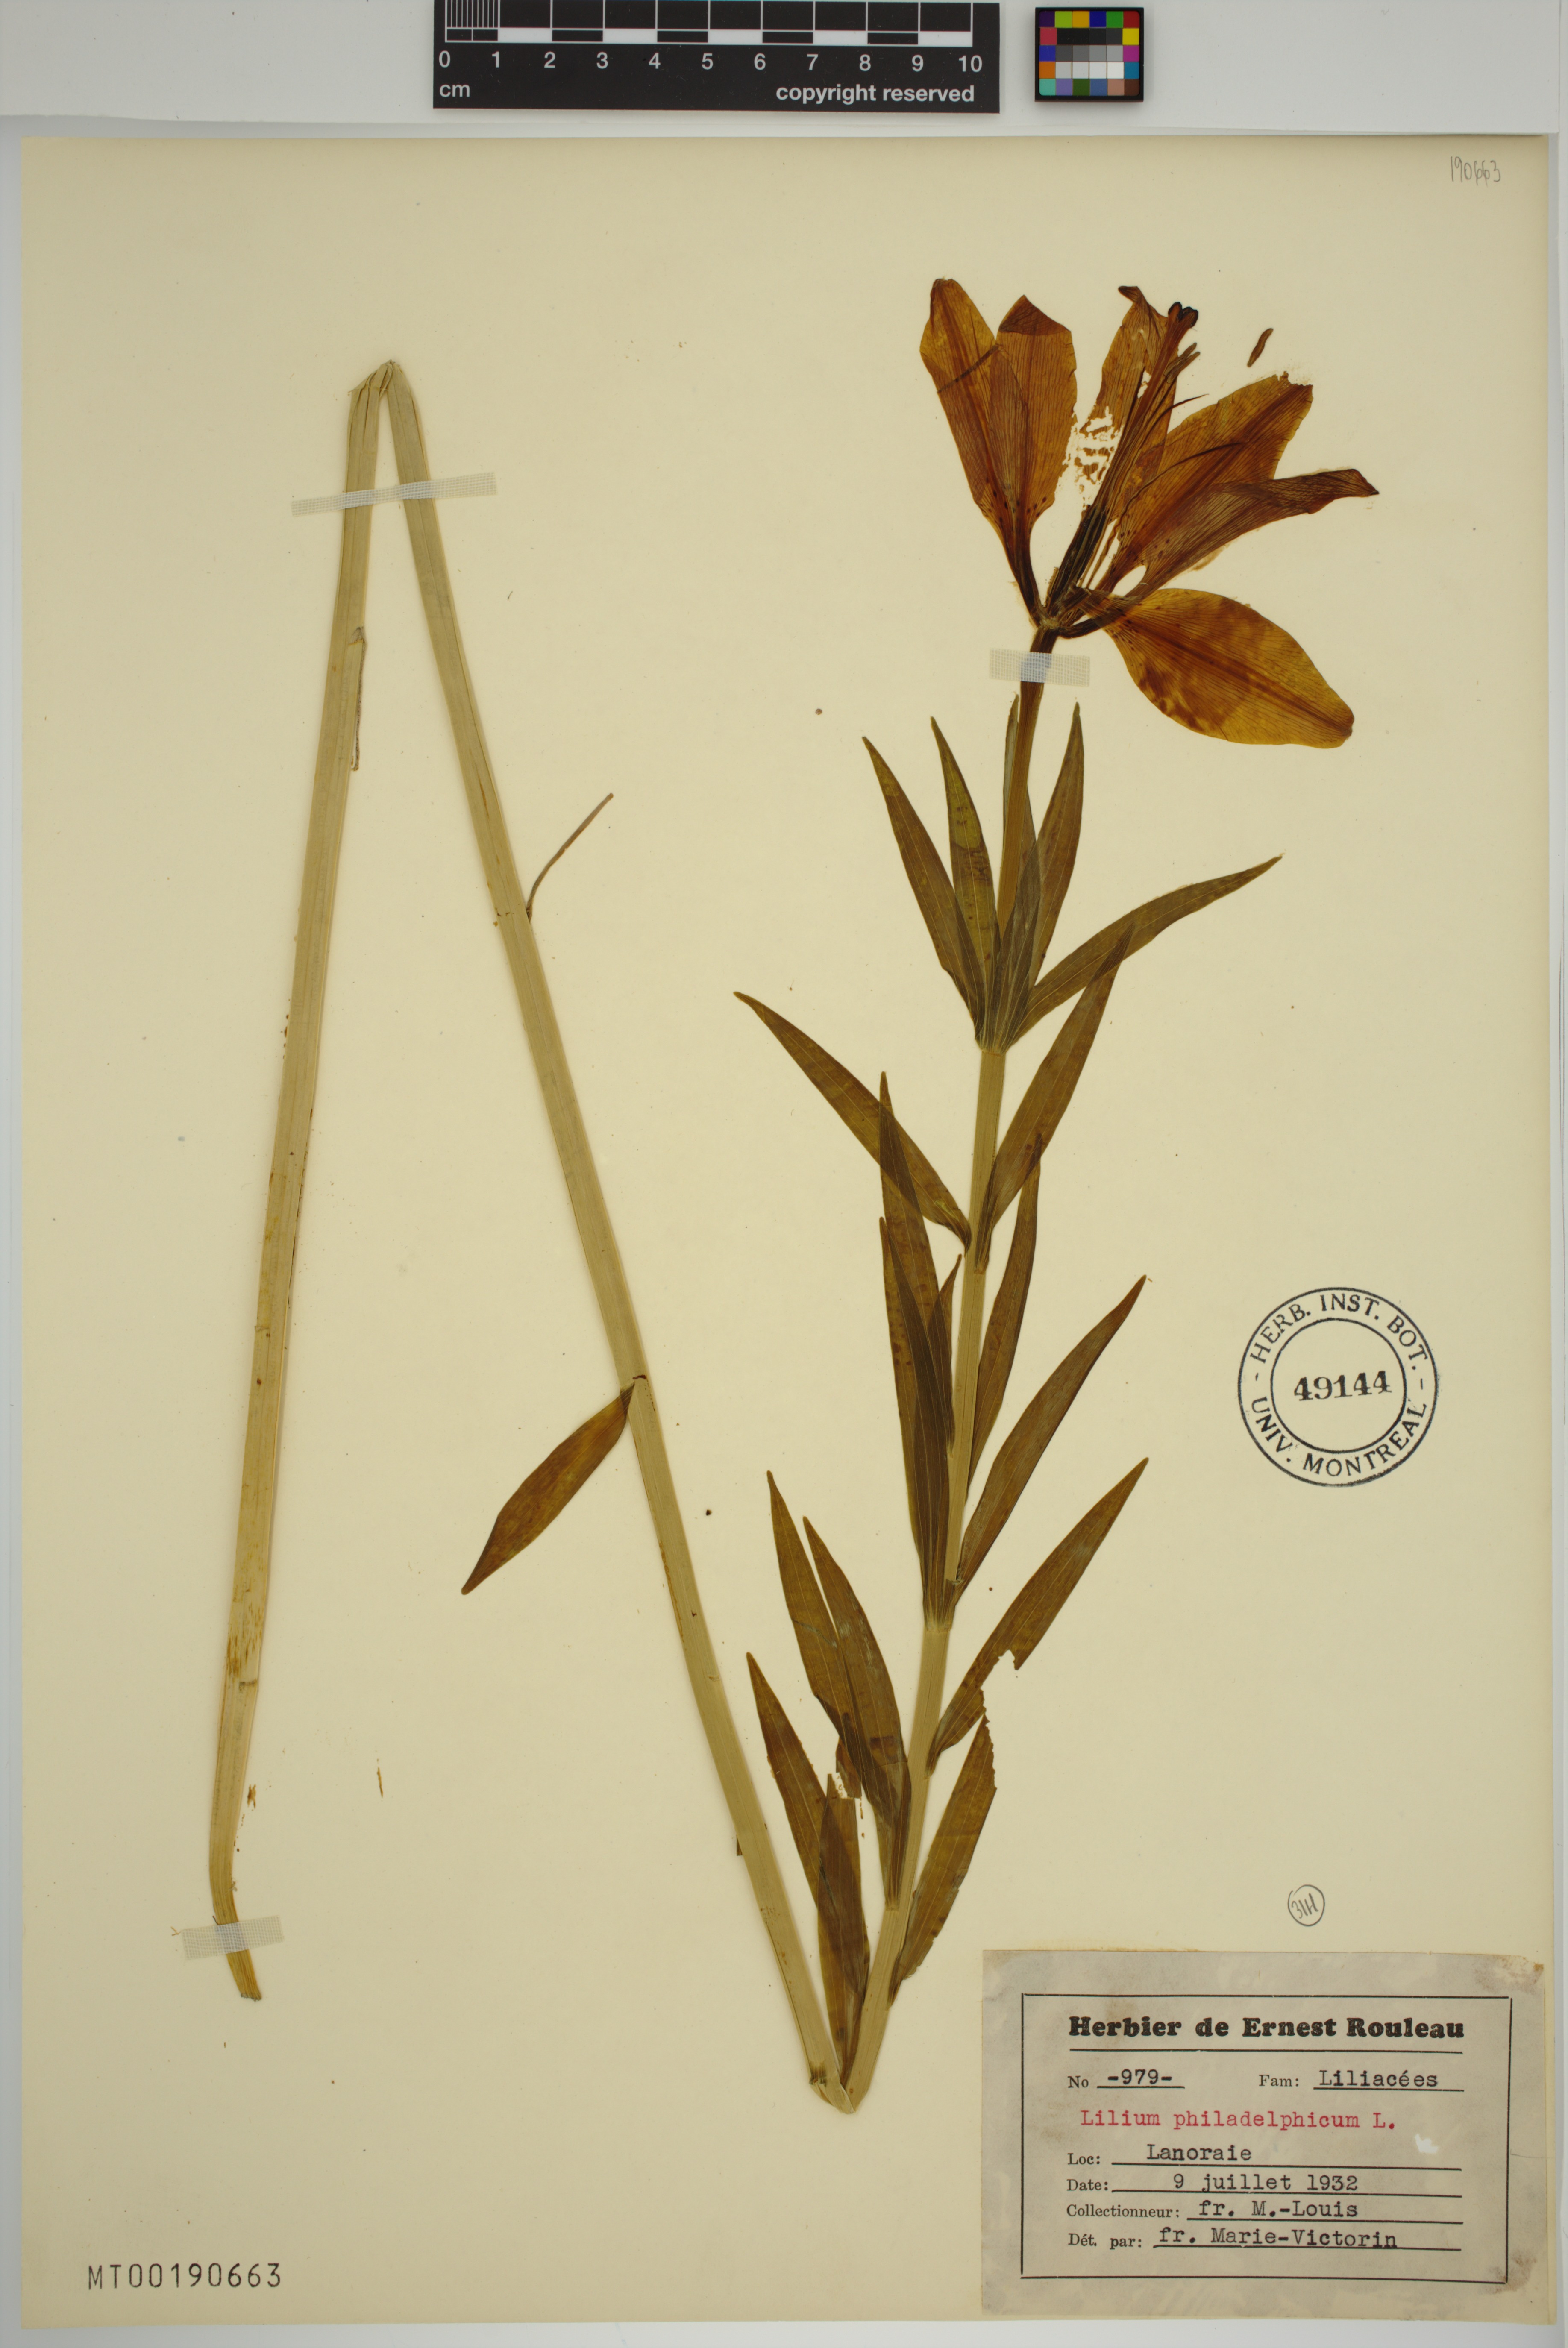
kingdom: Plantae
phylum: Tracheophyta
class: Liliopsida
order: Liliales
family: Liliaceae
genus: Lilium
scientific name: Lilium philadelphicum
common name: Red lily
